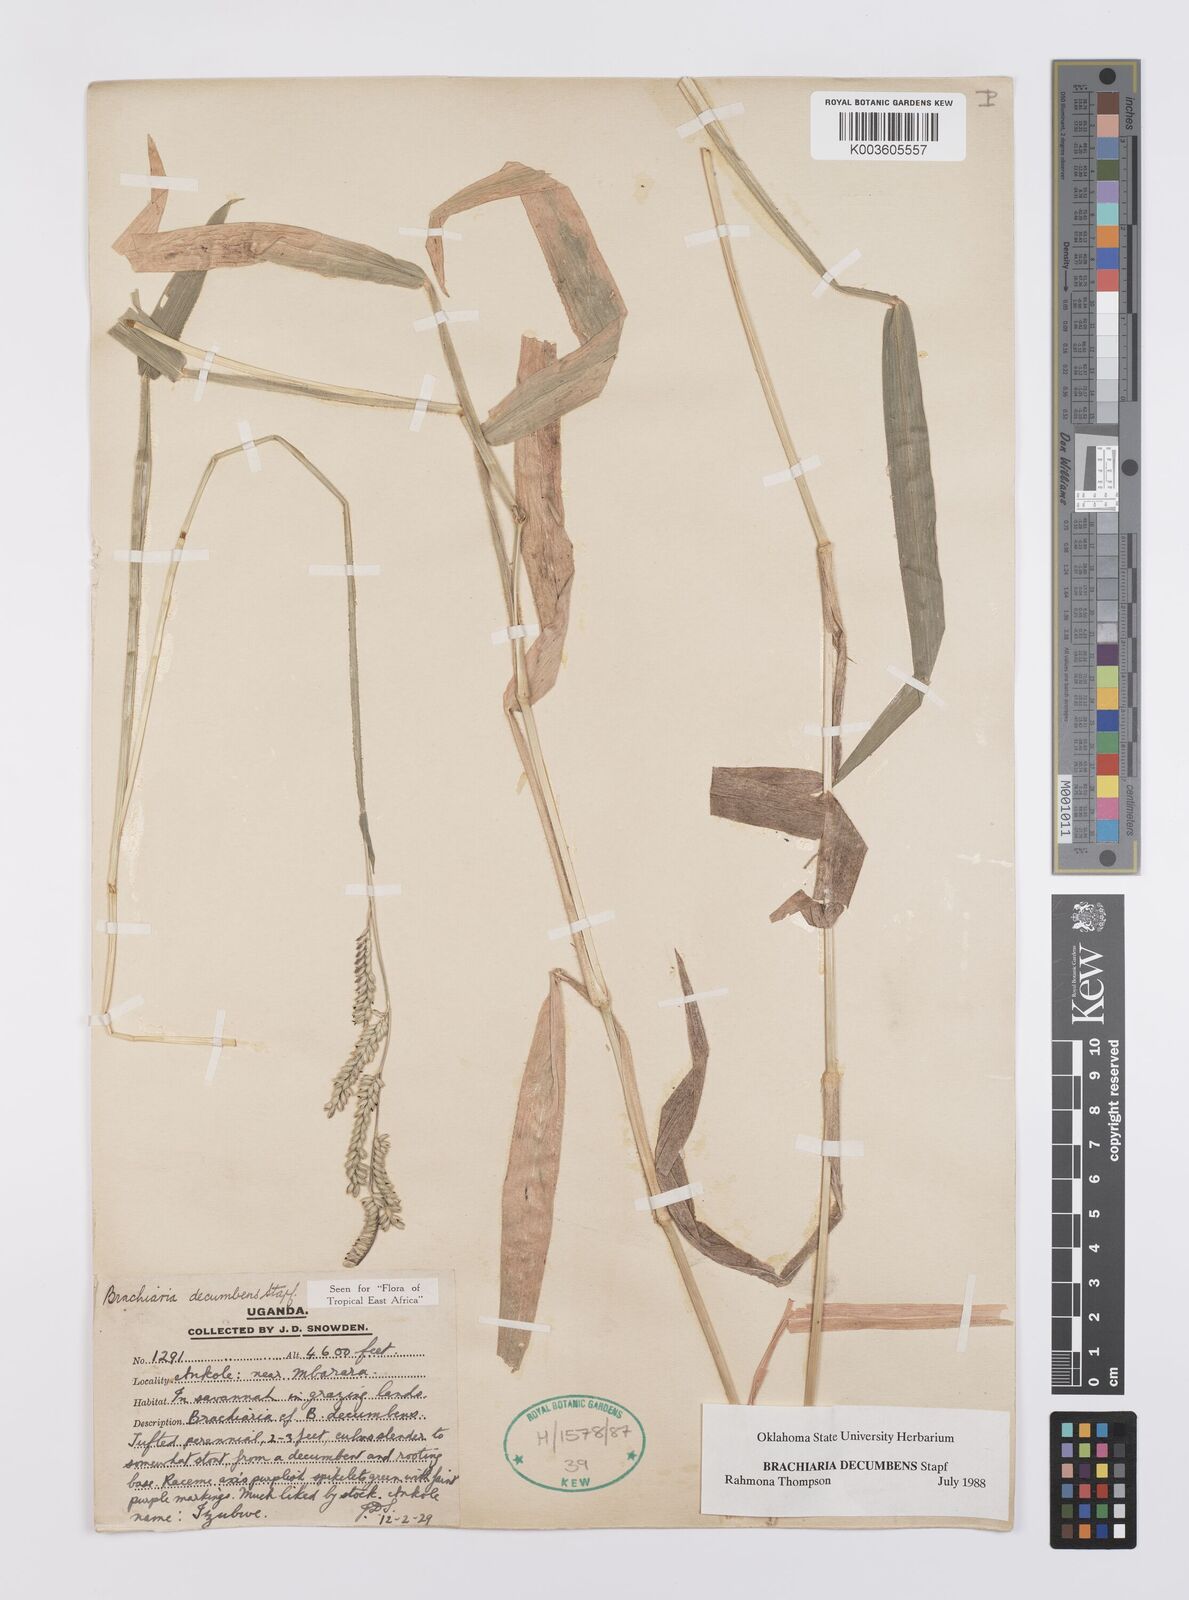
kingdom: Plantae
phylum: Tracheophyta
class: Liliopsida
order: Poales
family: Poaceae
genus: Urochloa
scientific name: Urochloa eminii
